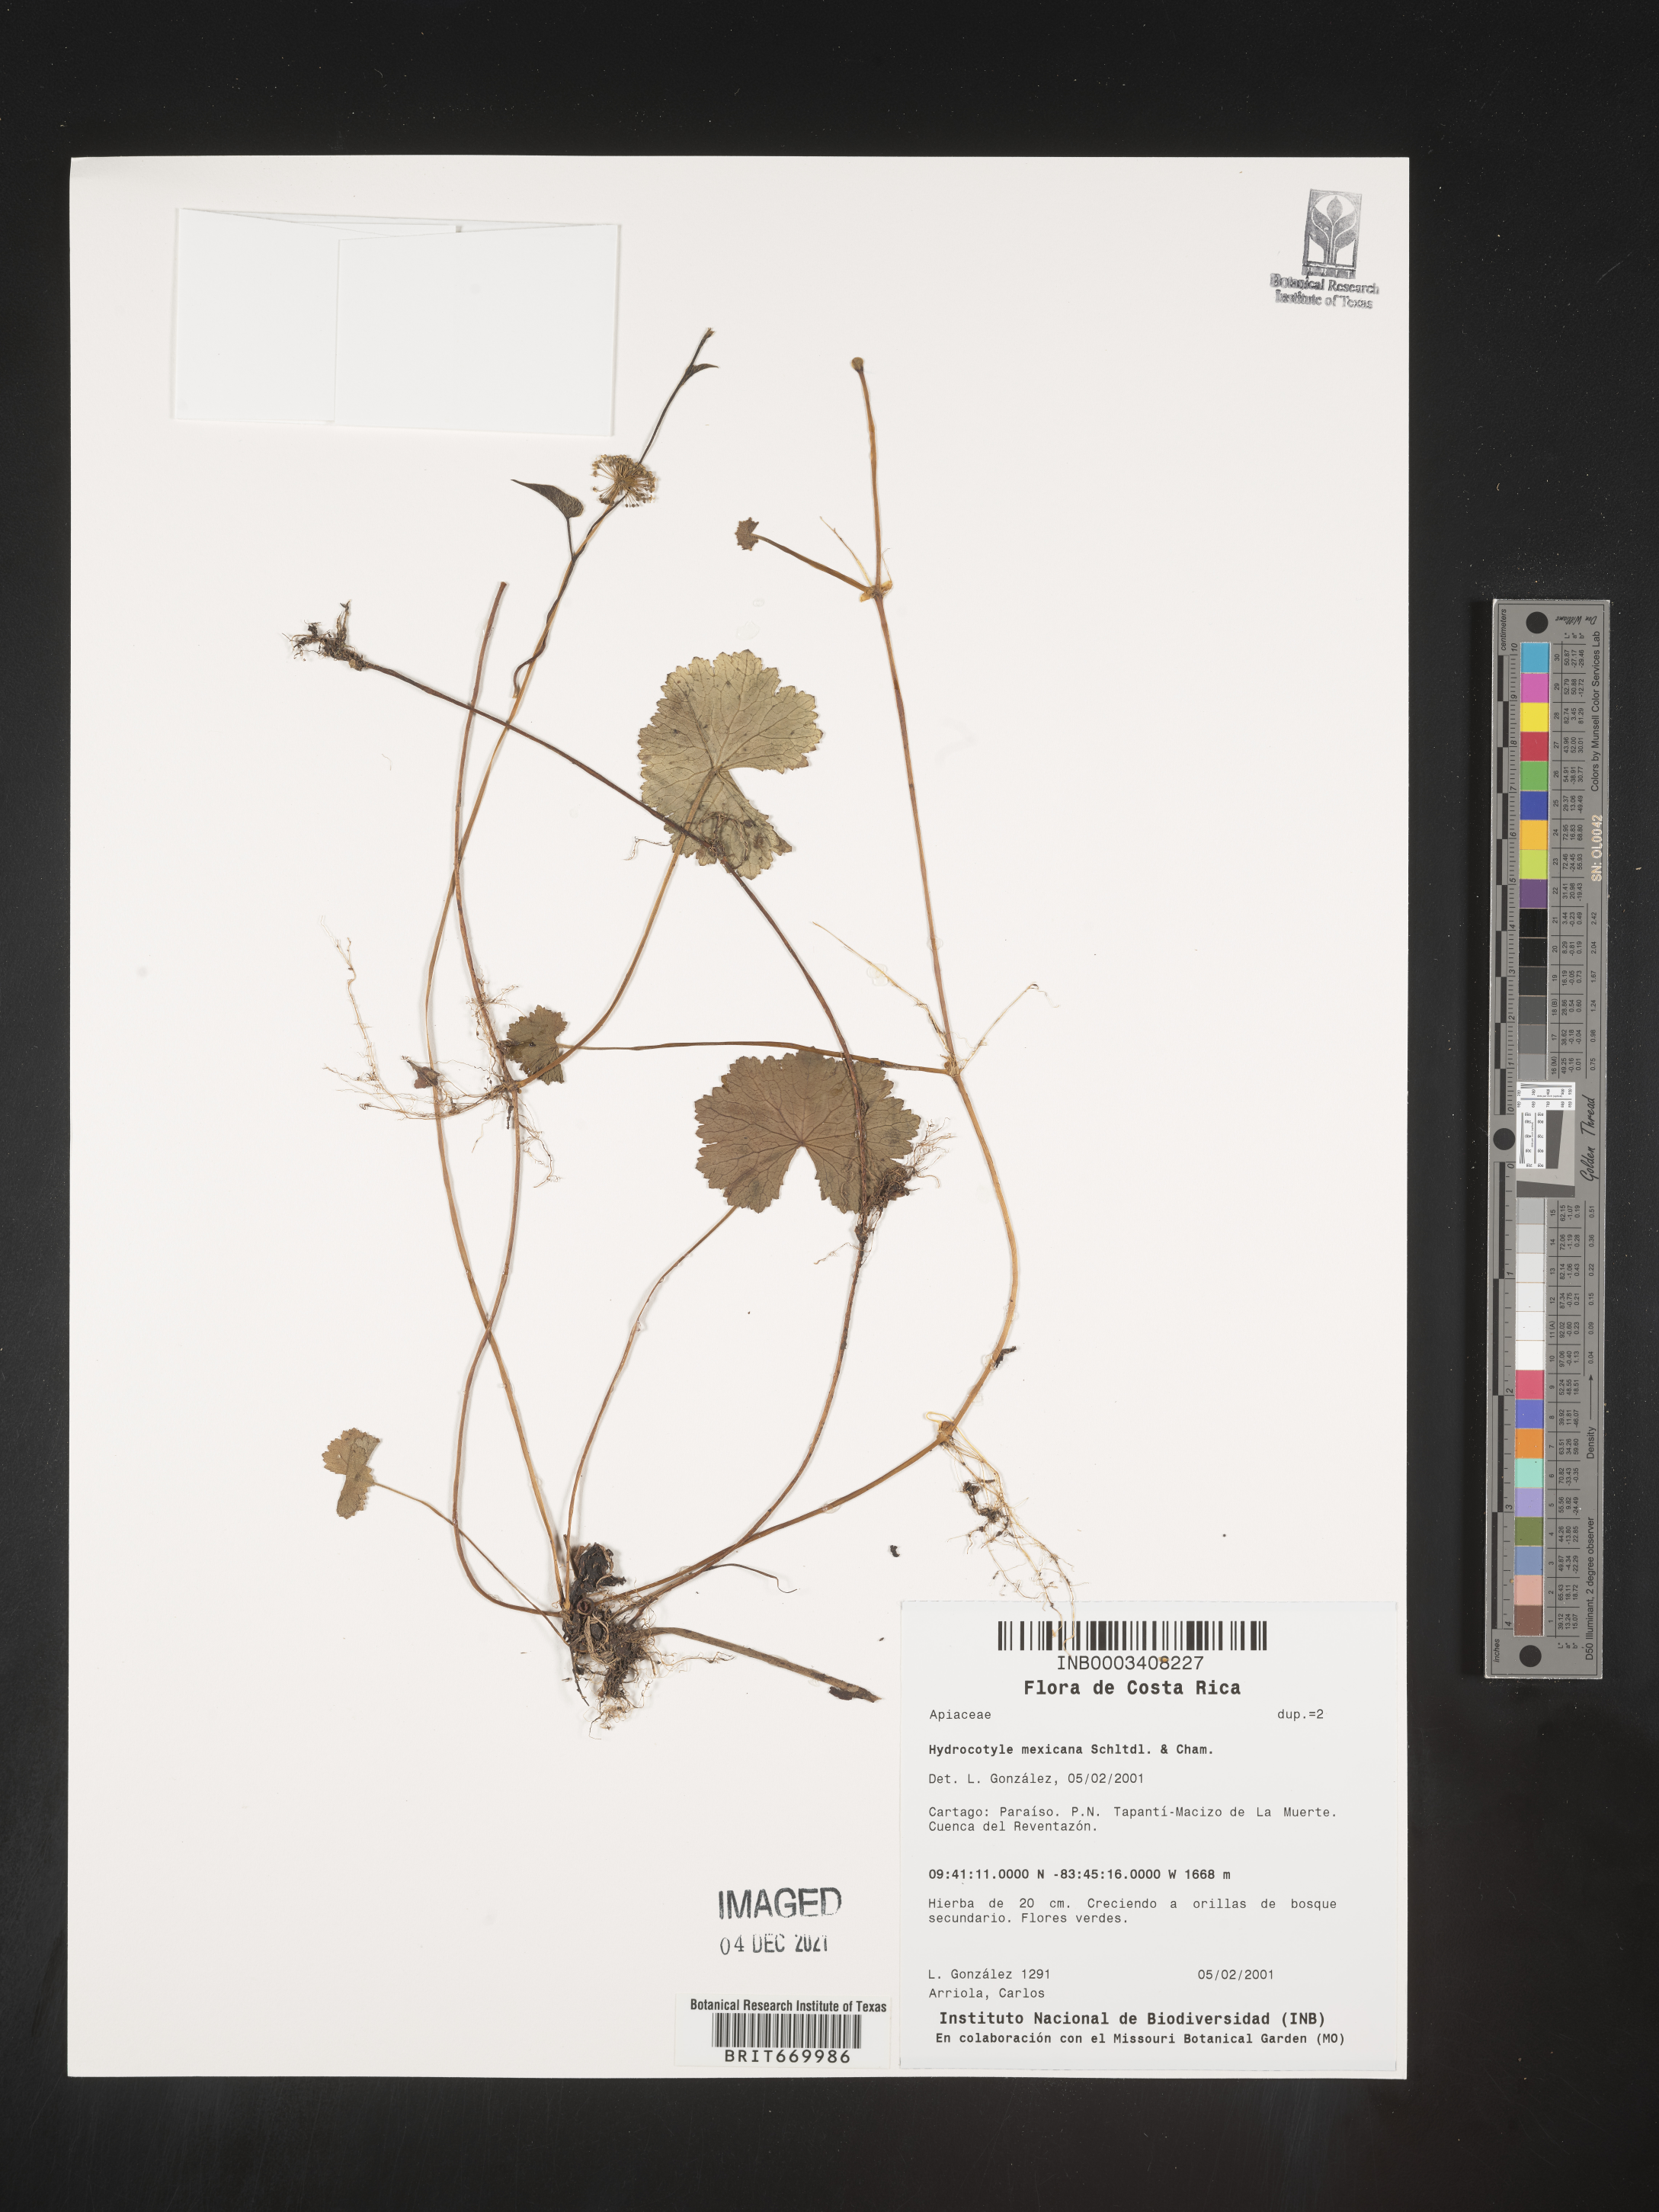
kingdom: Plantae
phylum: Tracheophyta
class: Magnoliopsida
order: Apiales
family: Araliaceae
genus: Hydrocotyle
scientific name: Hydrocotyle
